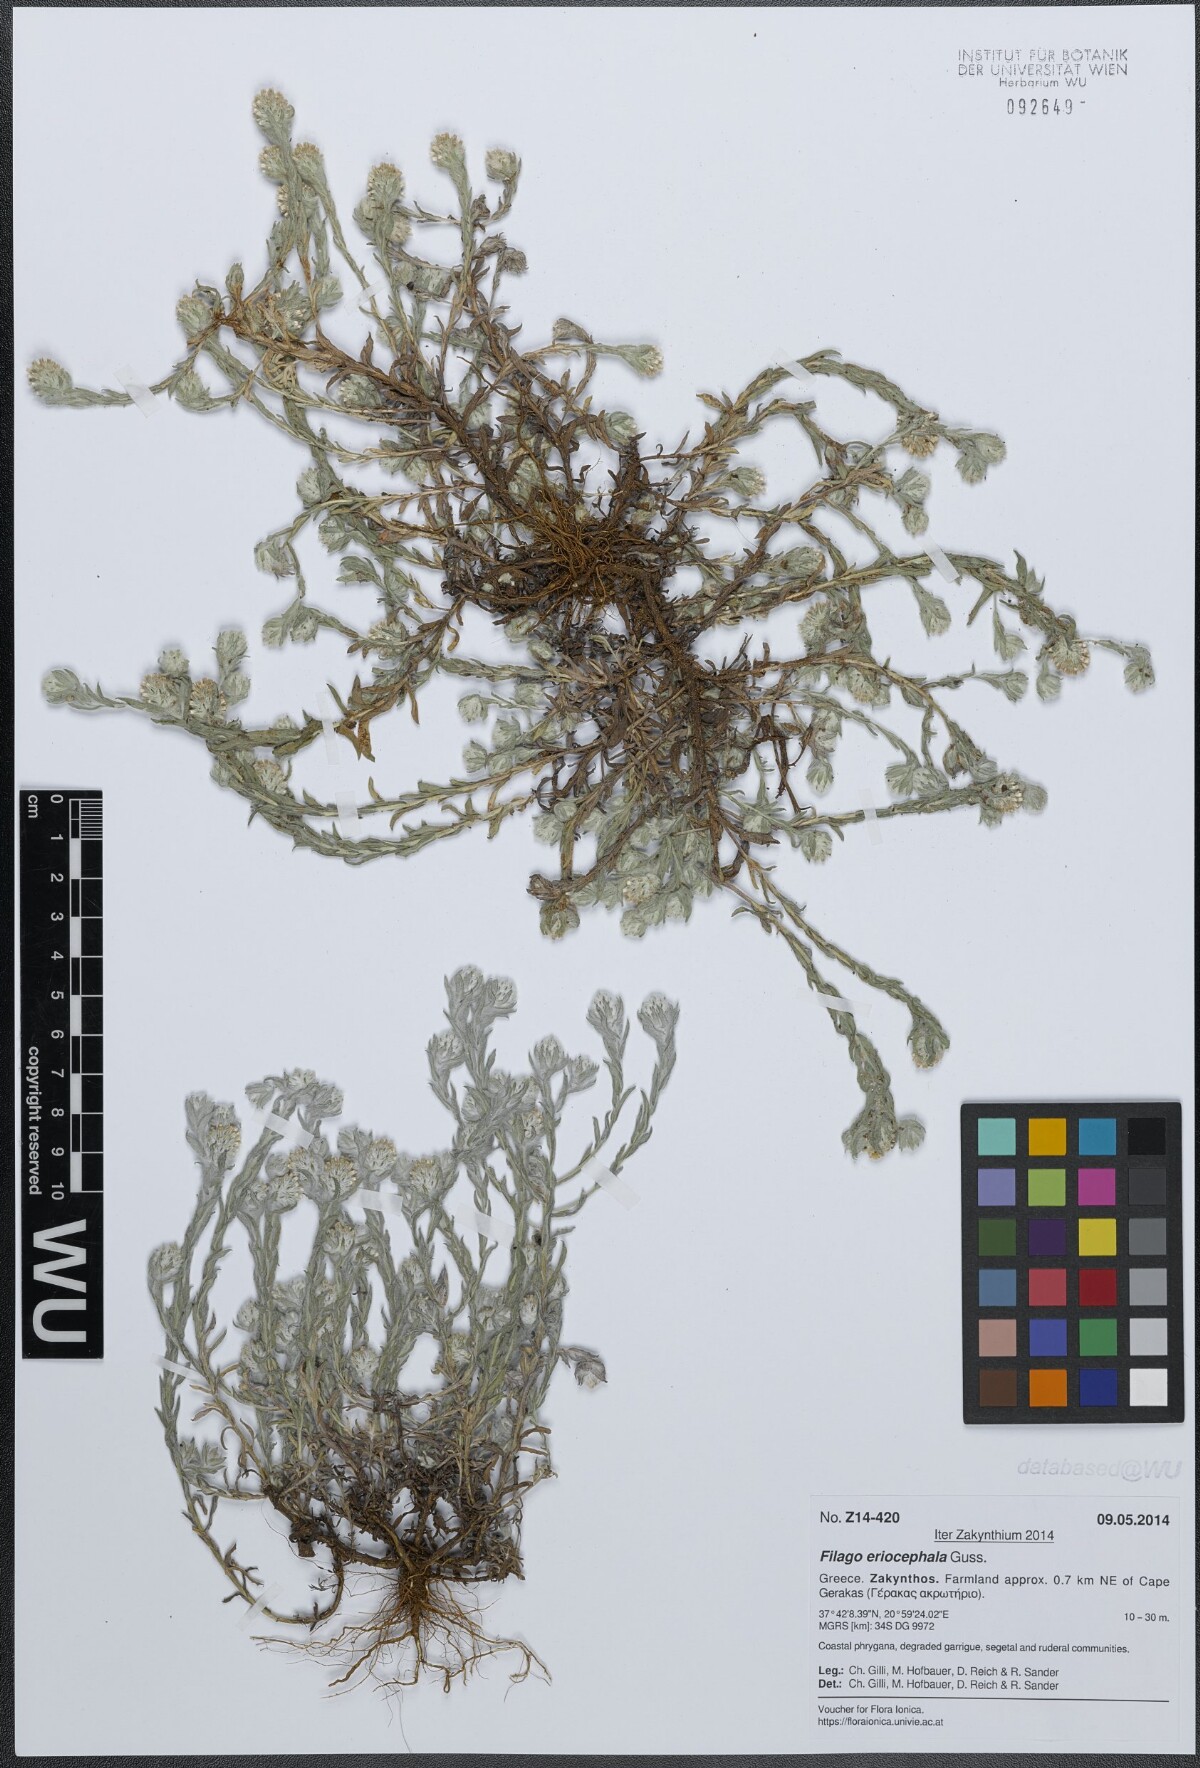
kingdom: Plantae
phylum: Tracheophyta
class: Magnoliopsida
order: Asterales
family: Asteraceae
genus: Filago
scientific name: Filago eriocephala
